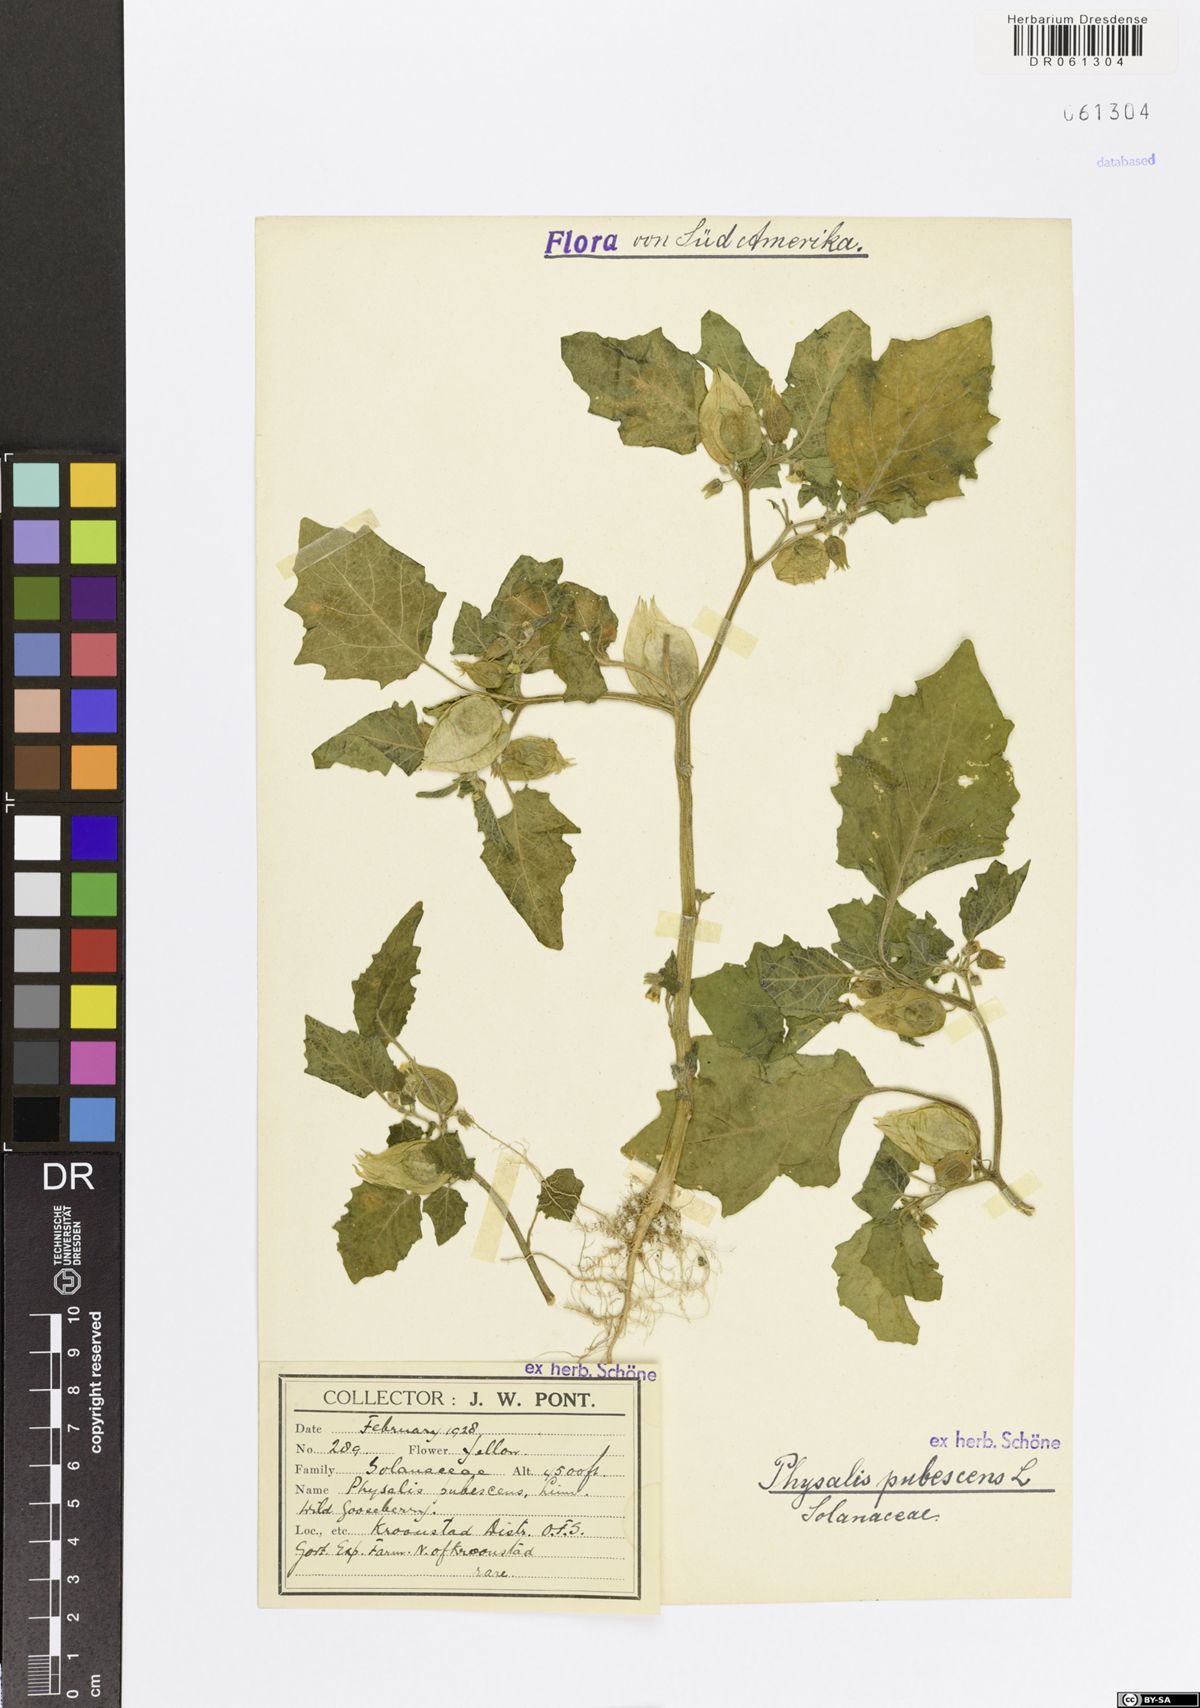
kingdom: Plantae
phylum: Tracheophyta
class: Magnoliopsida
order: Solanales
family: Solanaceae
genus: Physalis
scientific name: Physalis pubescens
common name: Downy ground-cherry
